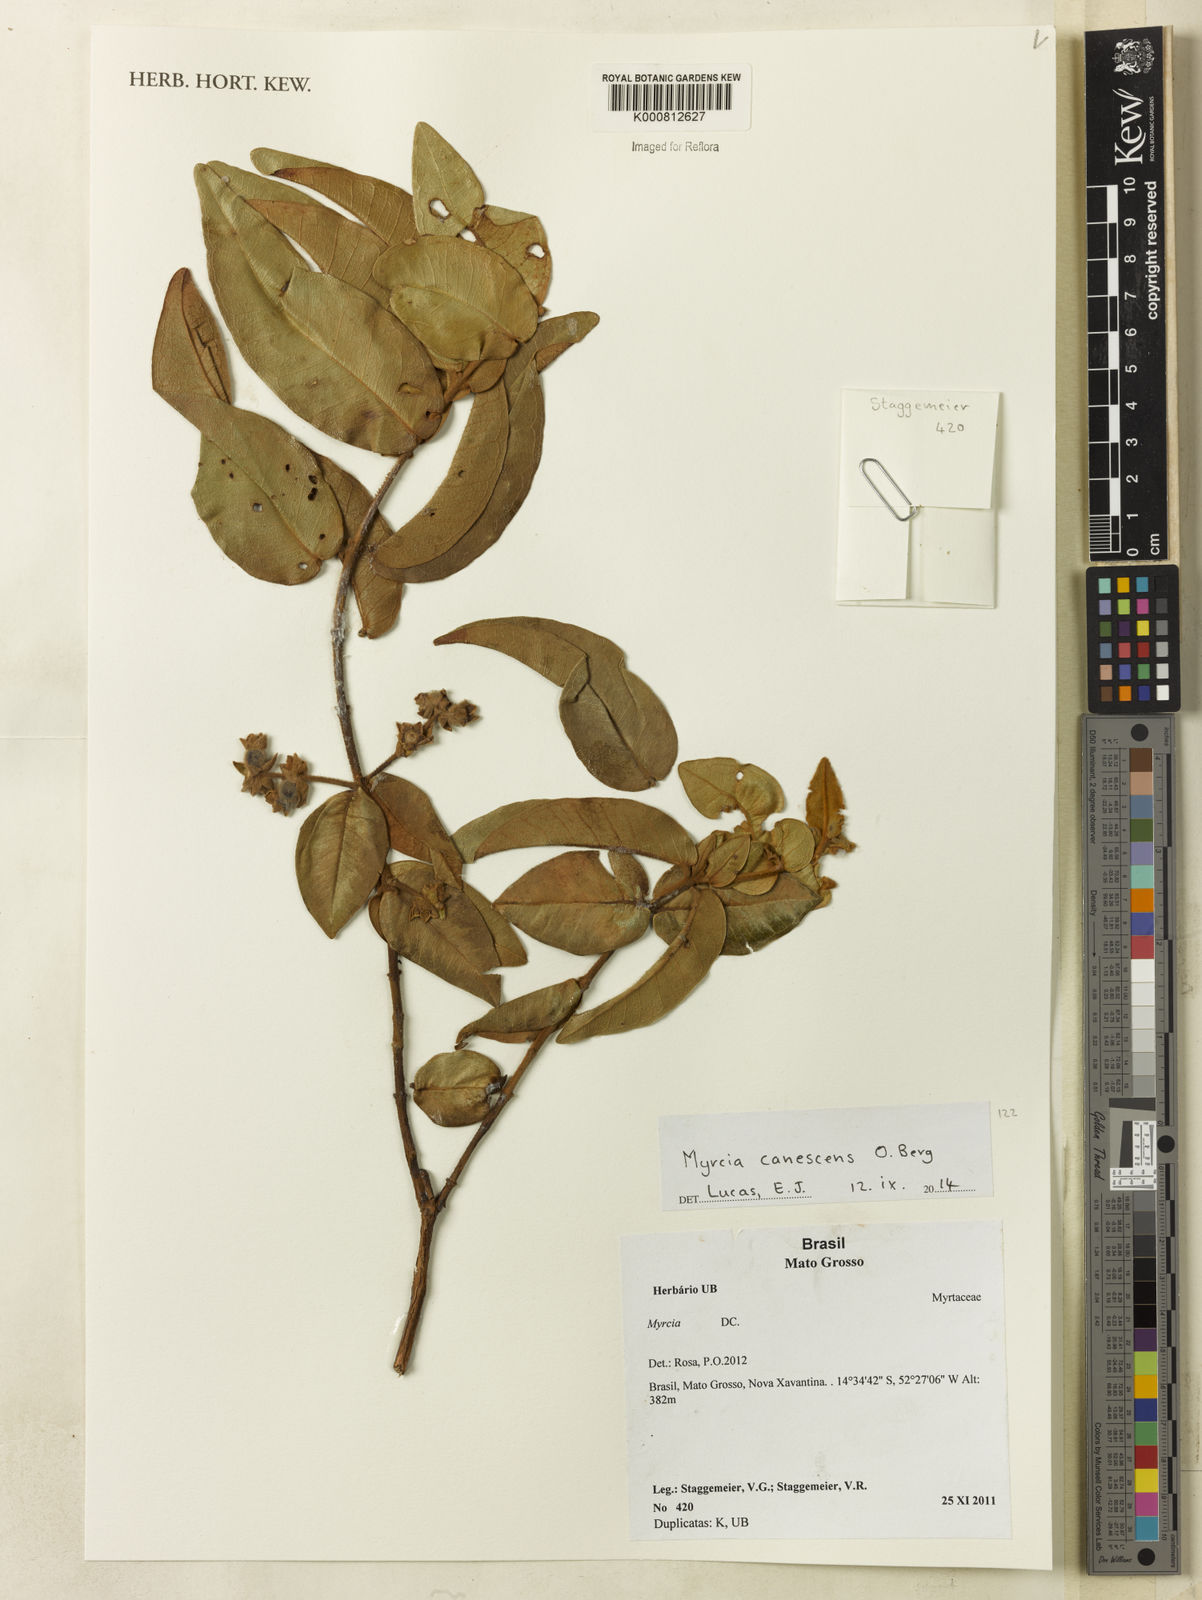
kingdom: Plantae
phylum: Tracheophyta
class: Magnoliopsida
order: Myrtales
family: Myrtaceae
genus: Myrcia
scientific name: Myrcia canescens
